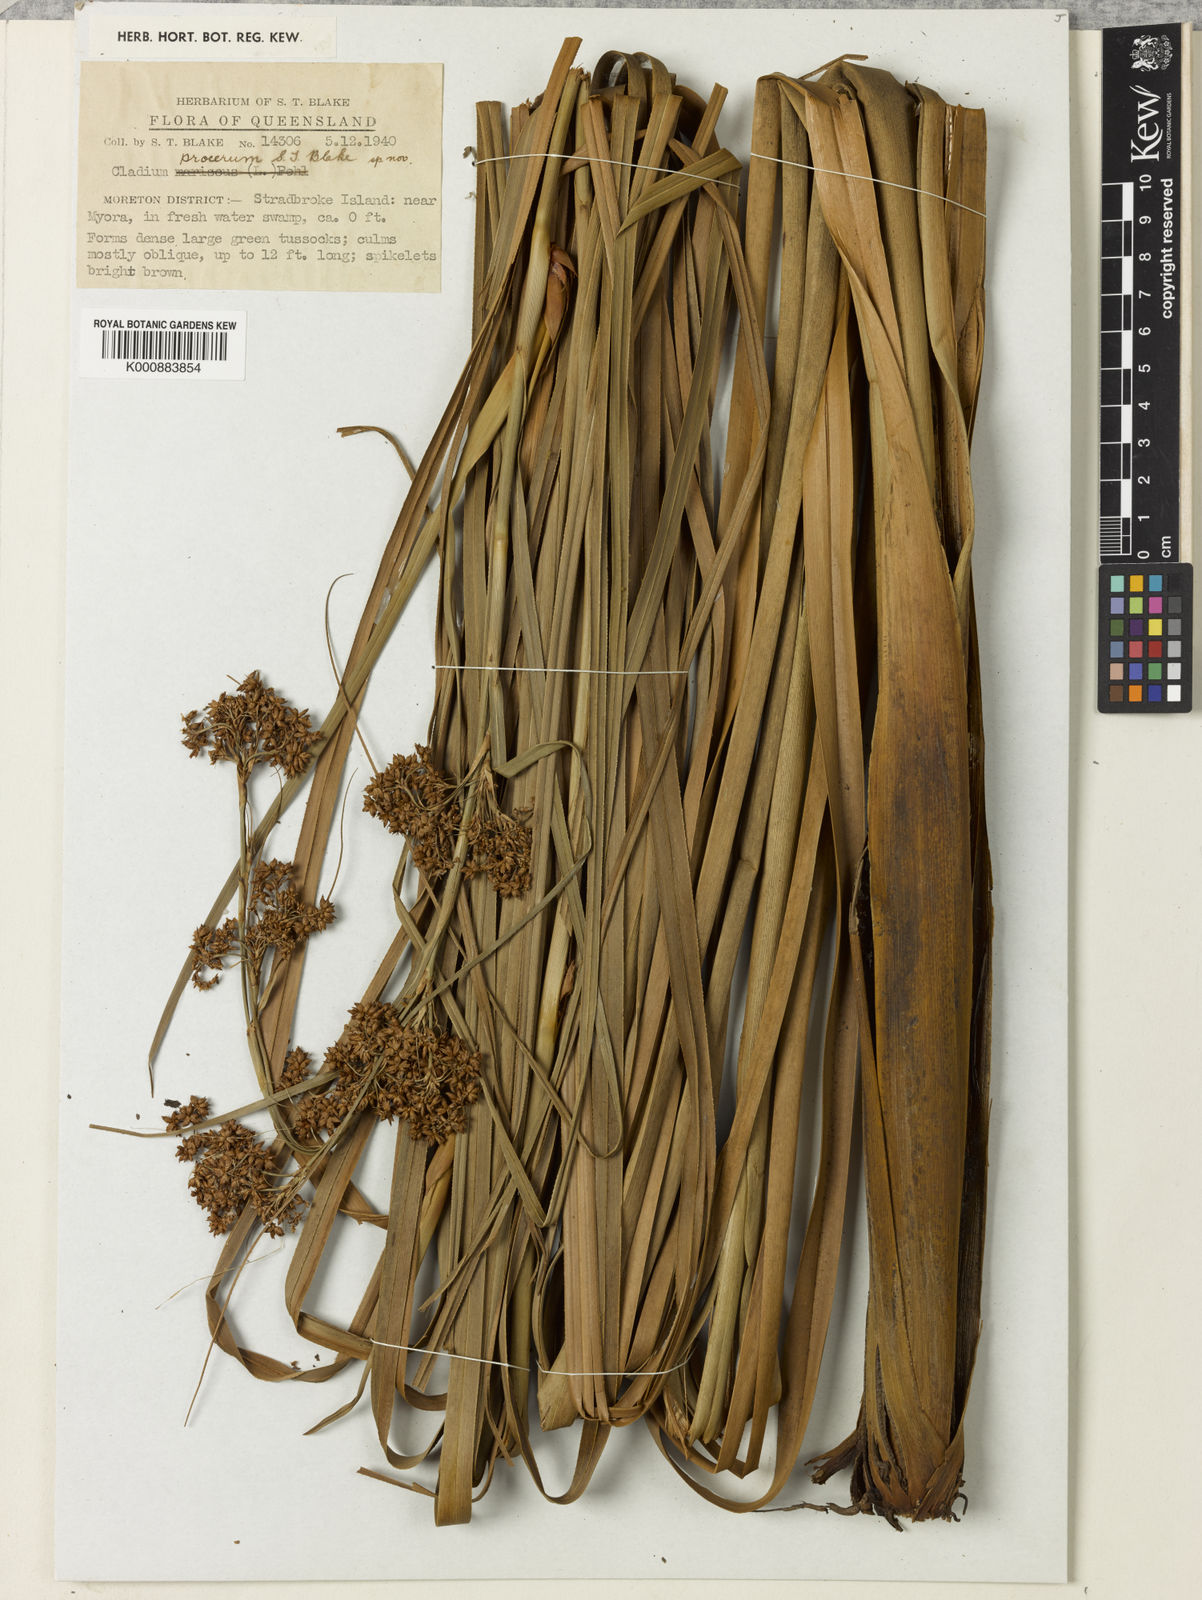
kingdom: Plantae
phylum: Tracheophyta
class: Liliopsida
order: Poales
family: Cyperaceae
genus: Cladium
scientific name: Cladium mariscus
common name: Great fen-sedge
